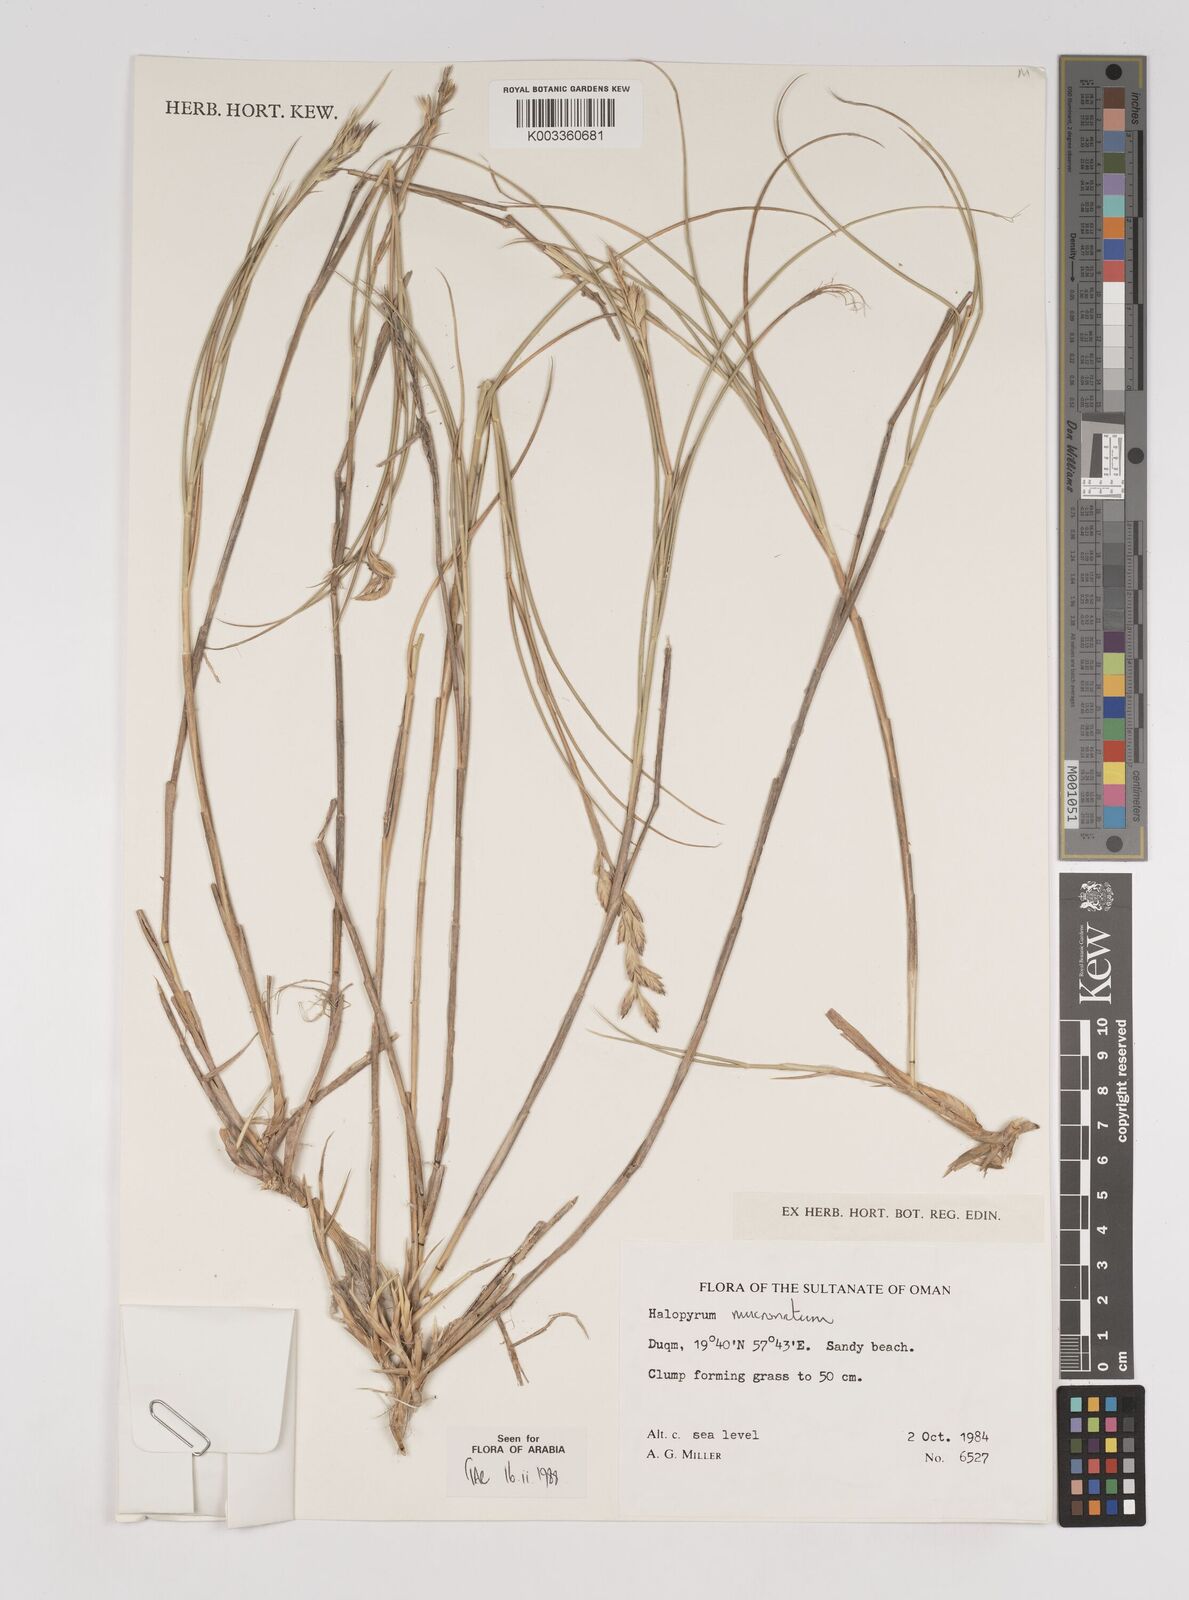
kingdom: Plantae
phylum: Tracheophyta
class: Liliopsida
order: Poales
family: Poaceae
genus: Halopyrum
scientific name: Halopyrum mucronatum
